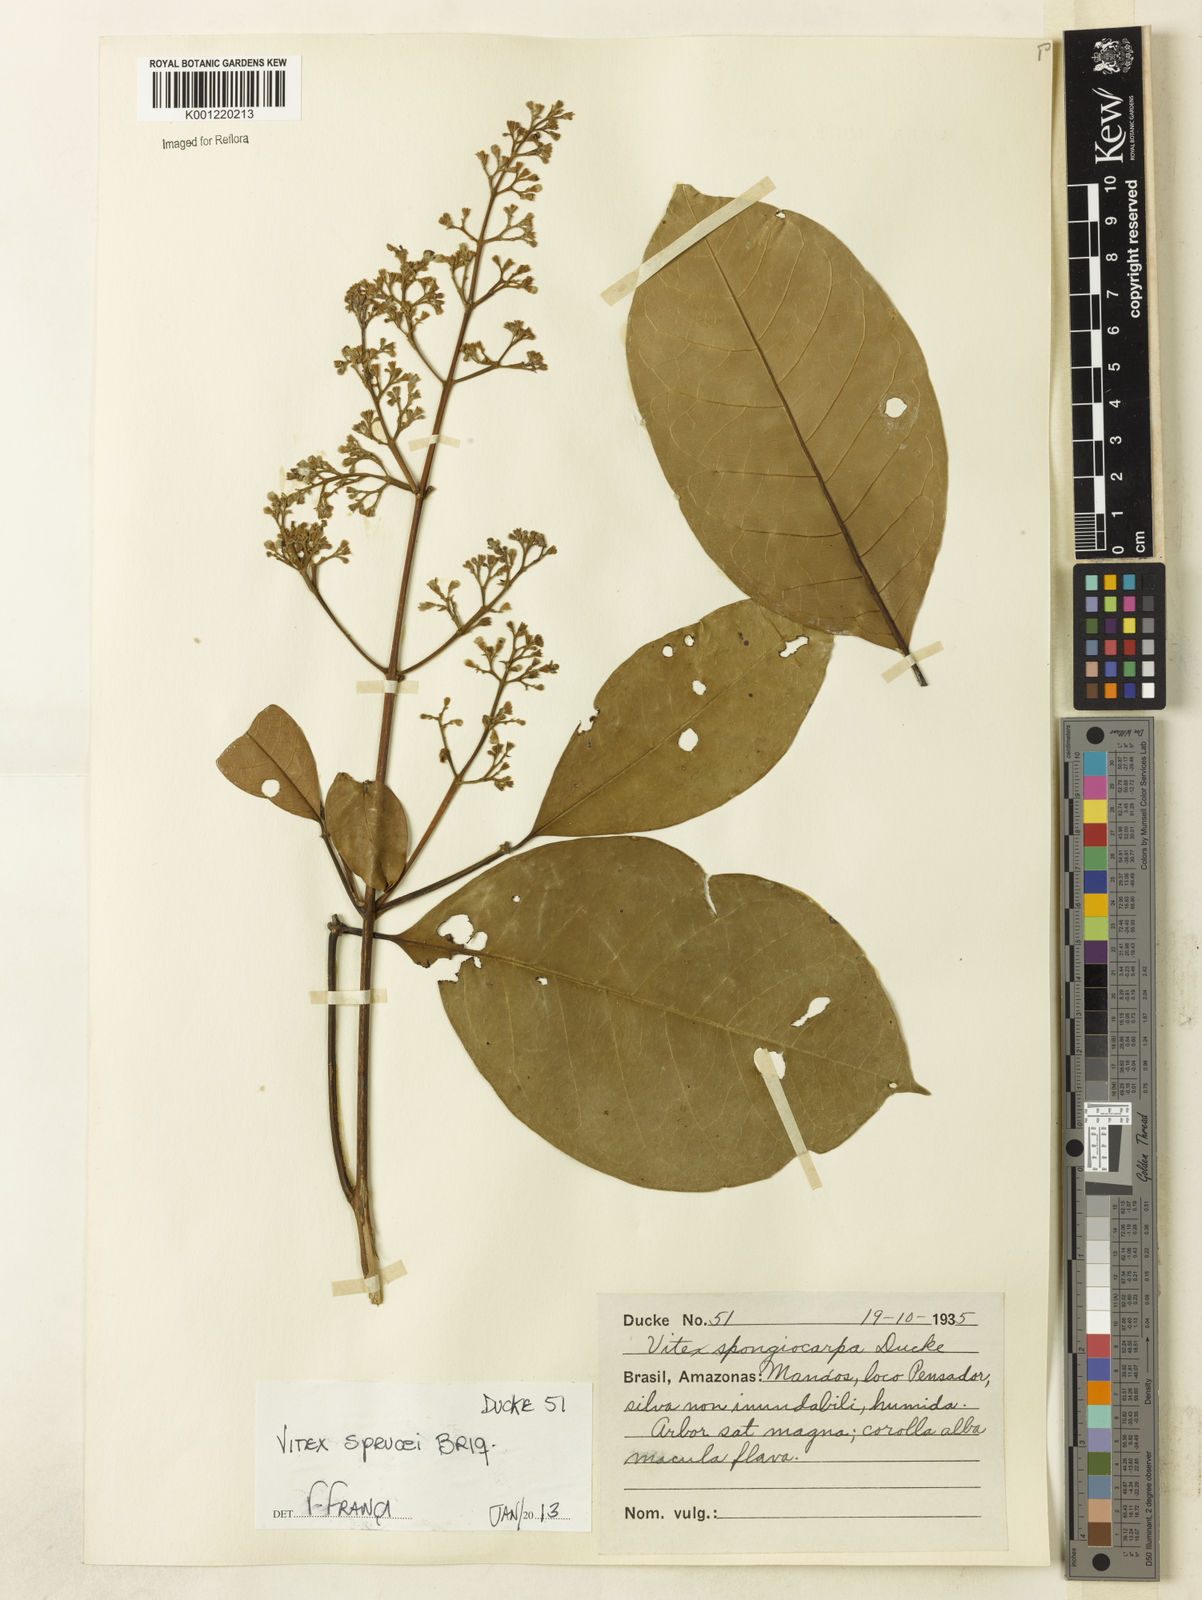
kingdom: Plantae
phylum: Tracheophyta
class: Magnoliopsida
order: Lamiales
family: Lamiaceae
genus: Vitex
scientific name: Vitex sprucei
